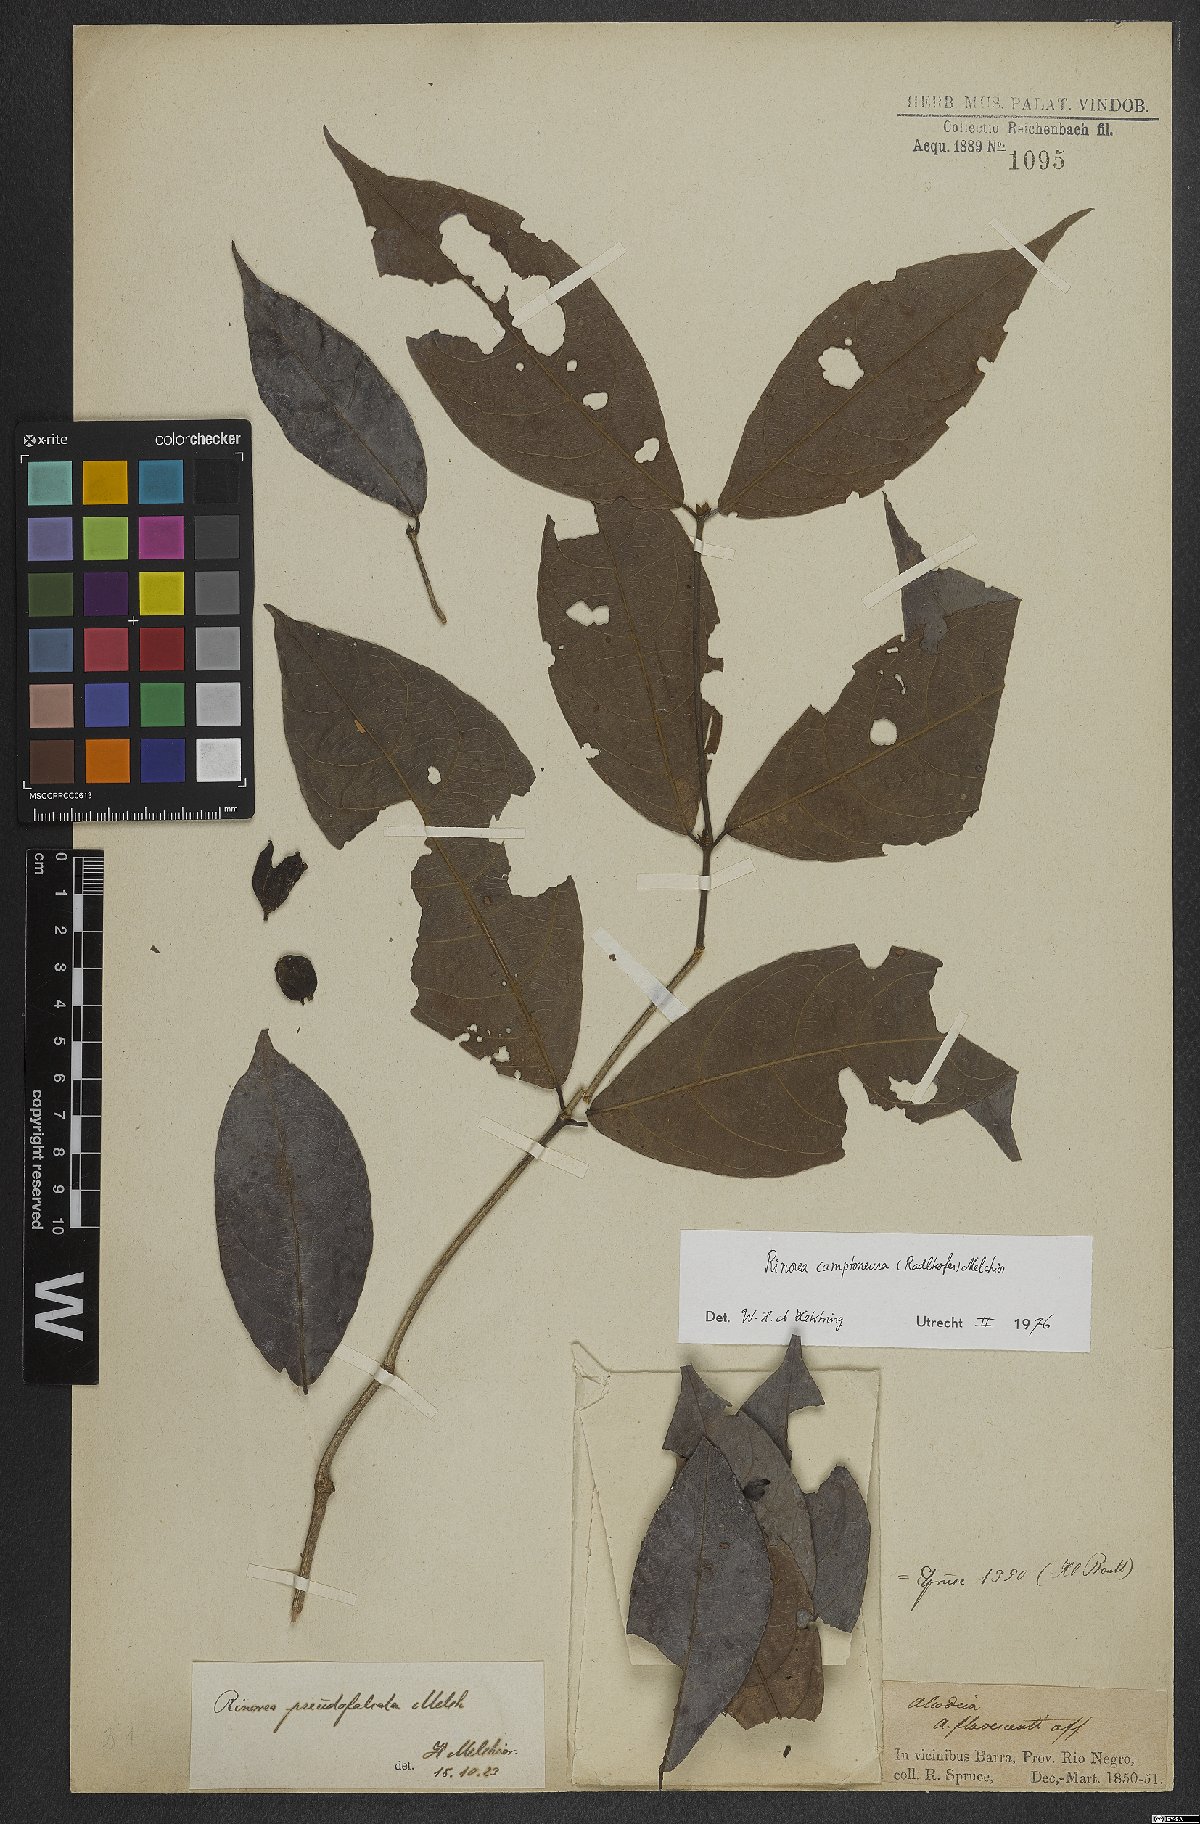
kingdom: Plantae
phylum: Tracheophyta
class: Magnoliopsida
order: Malpighiales
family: Violaceae
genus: Rinorea
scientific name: Rinorea camptoneura
